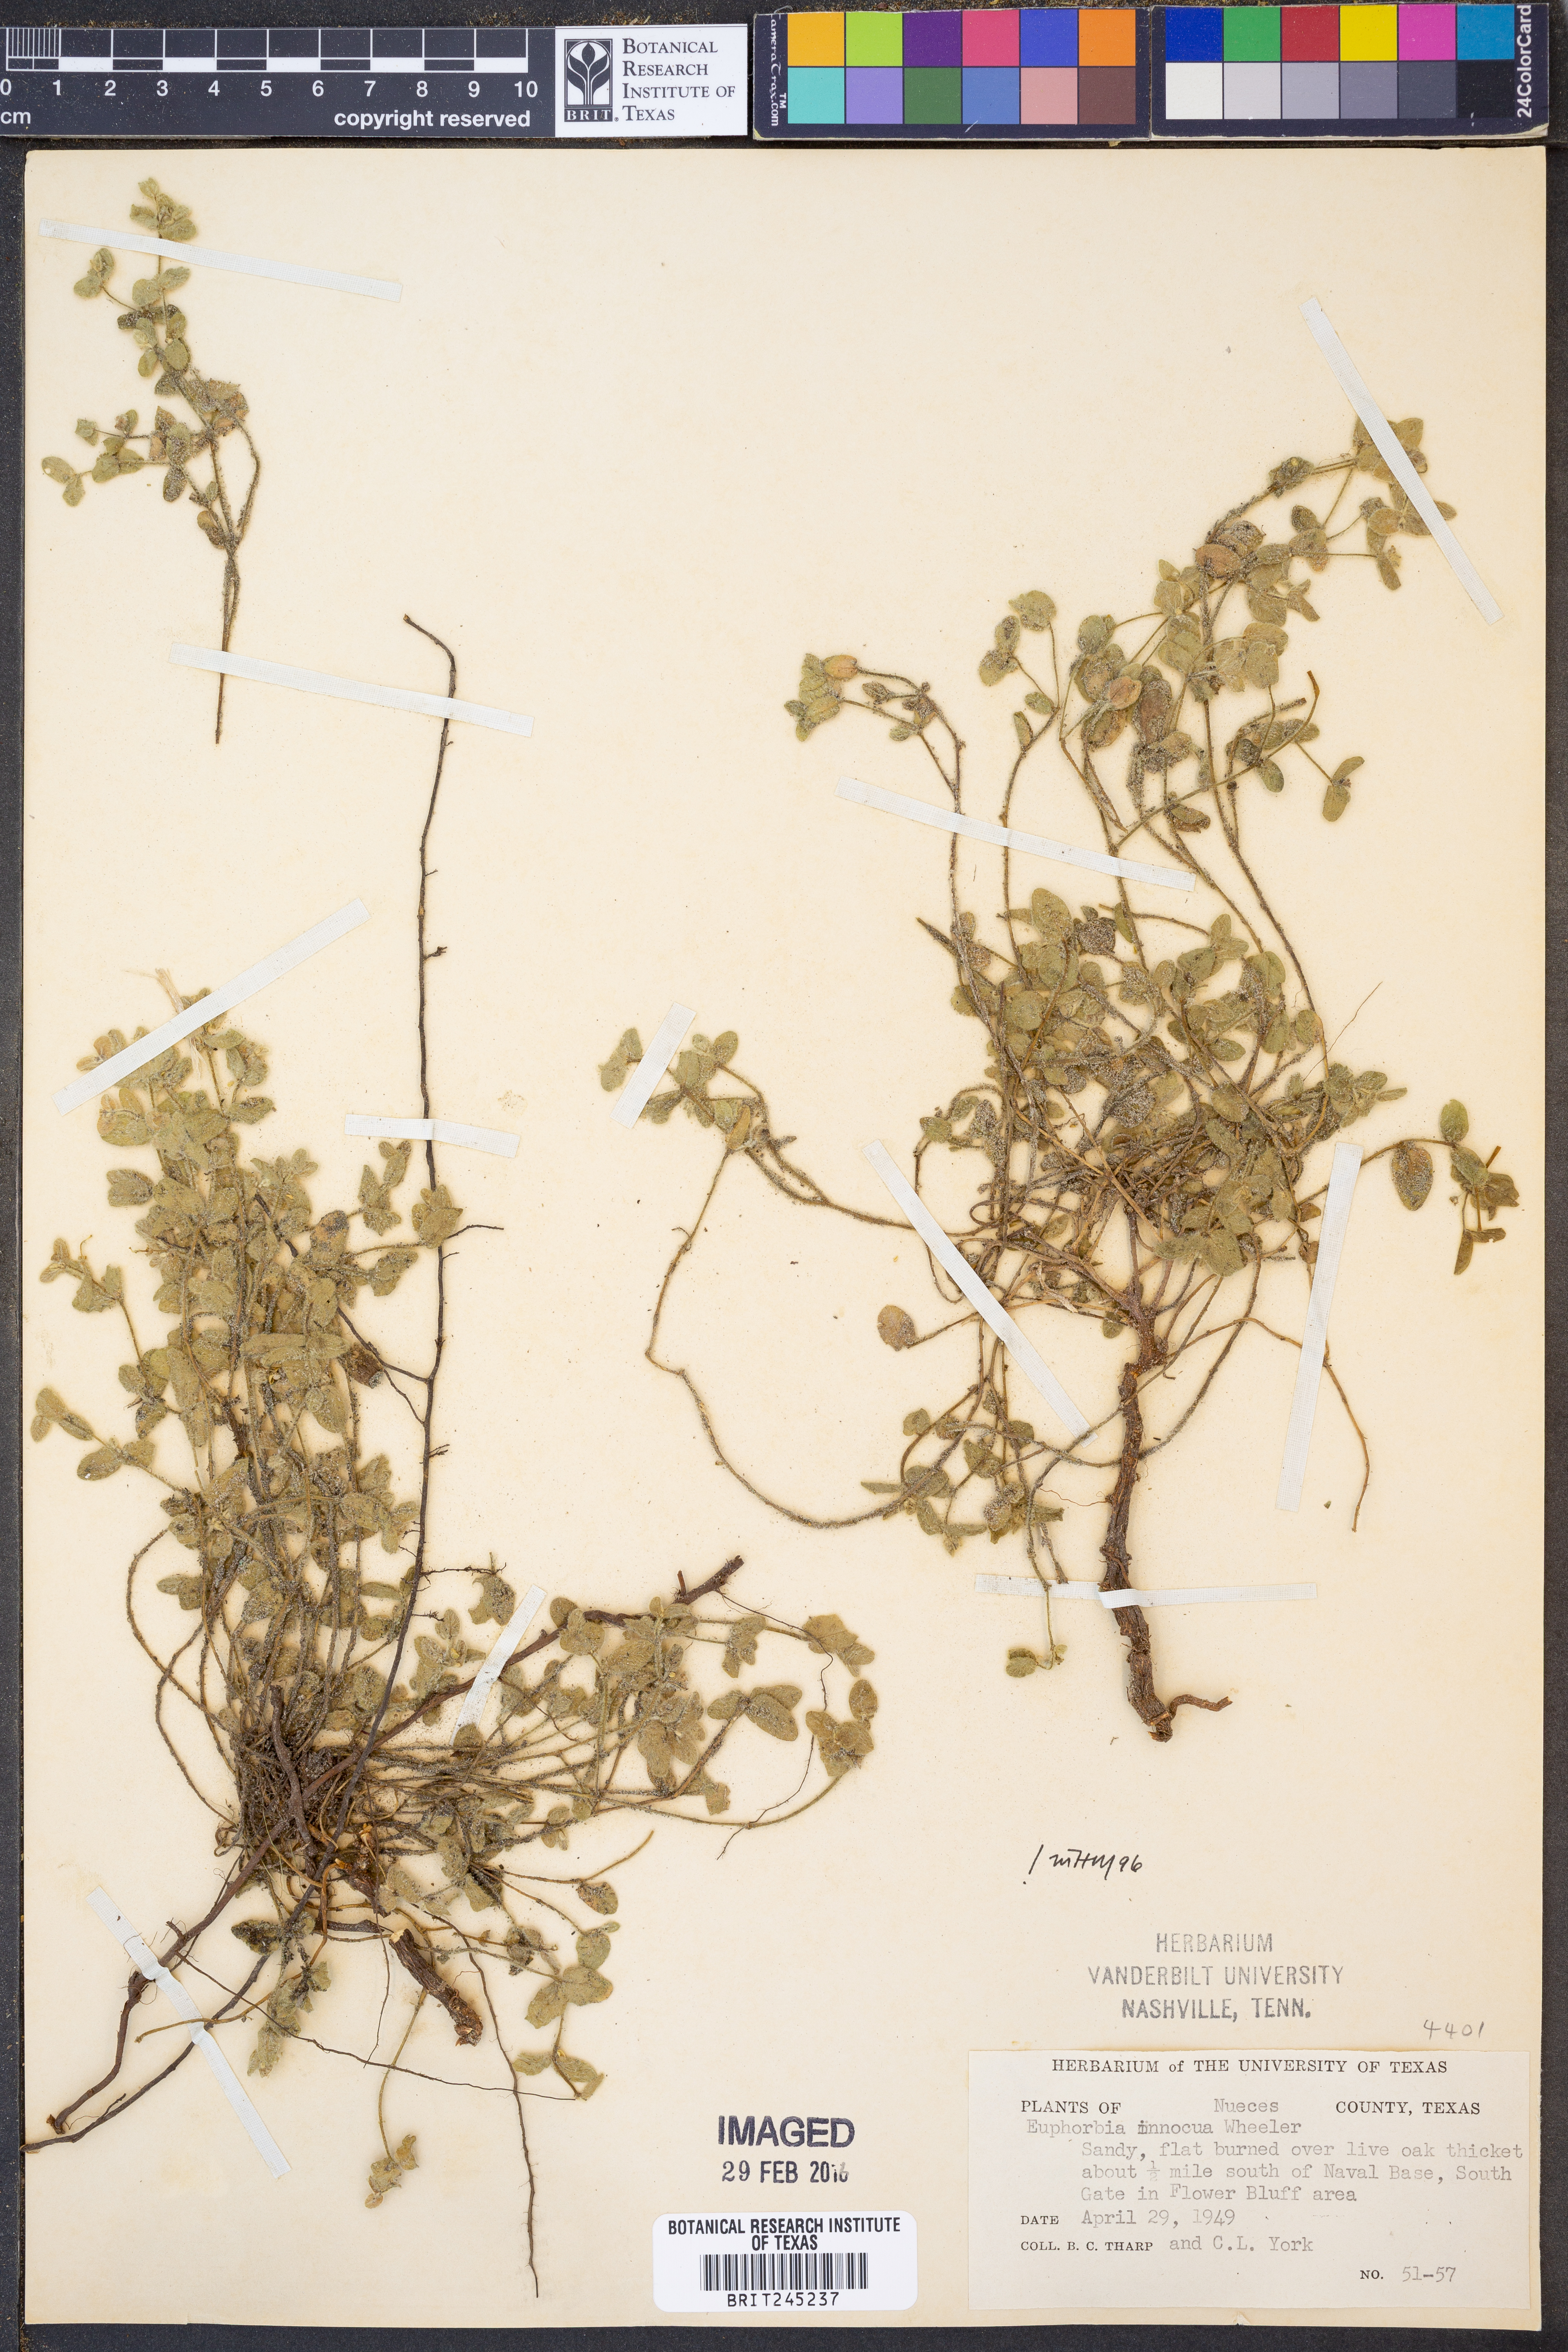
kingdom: Plantae
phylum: Tracheophyta
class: Magnoliopsida
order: Malpighiales
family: Euphorbiaceae
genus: Euphorbia
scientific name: Euphorbia innocua
